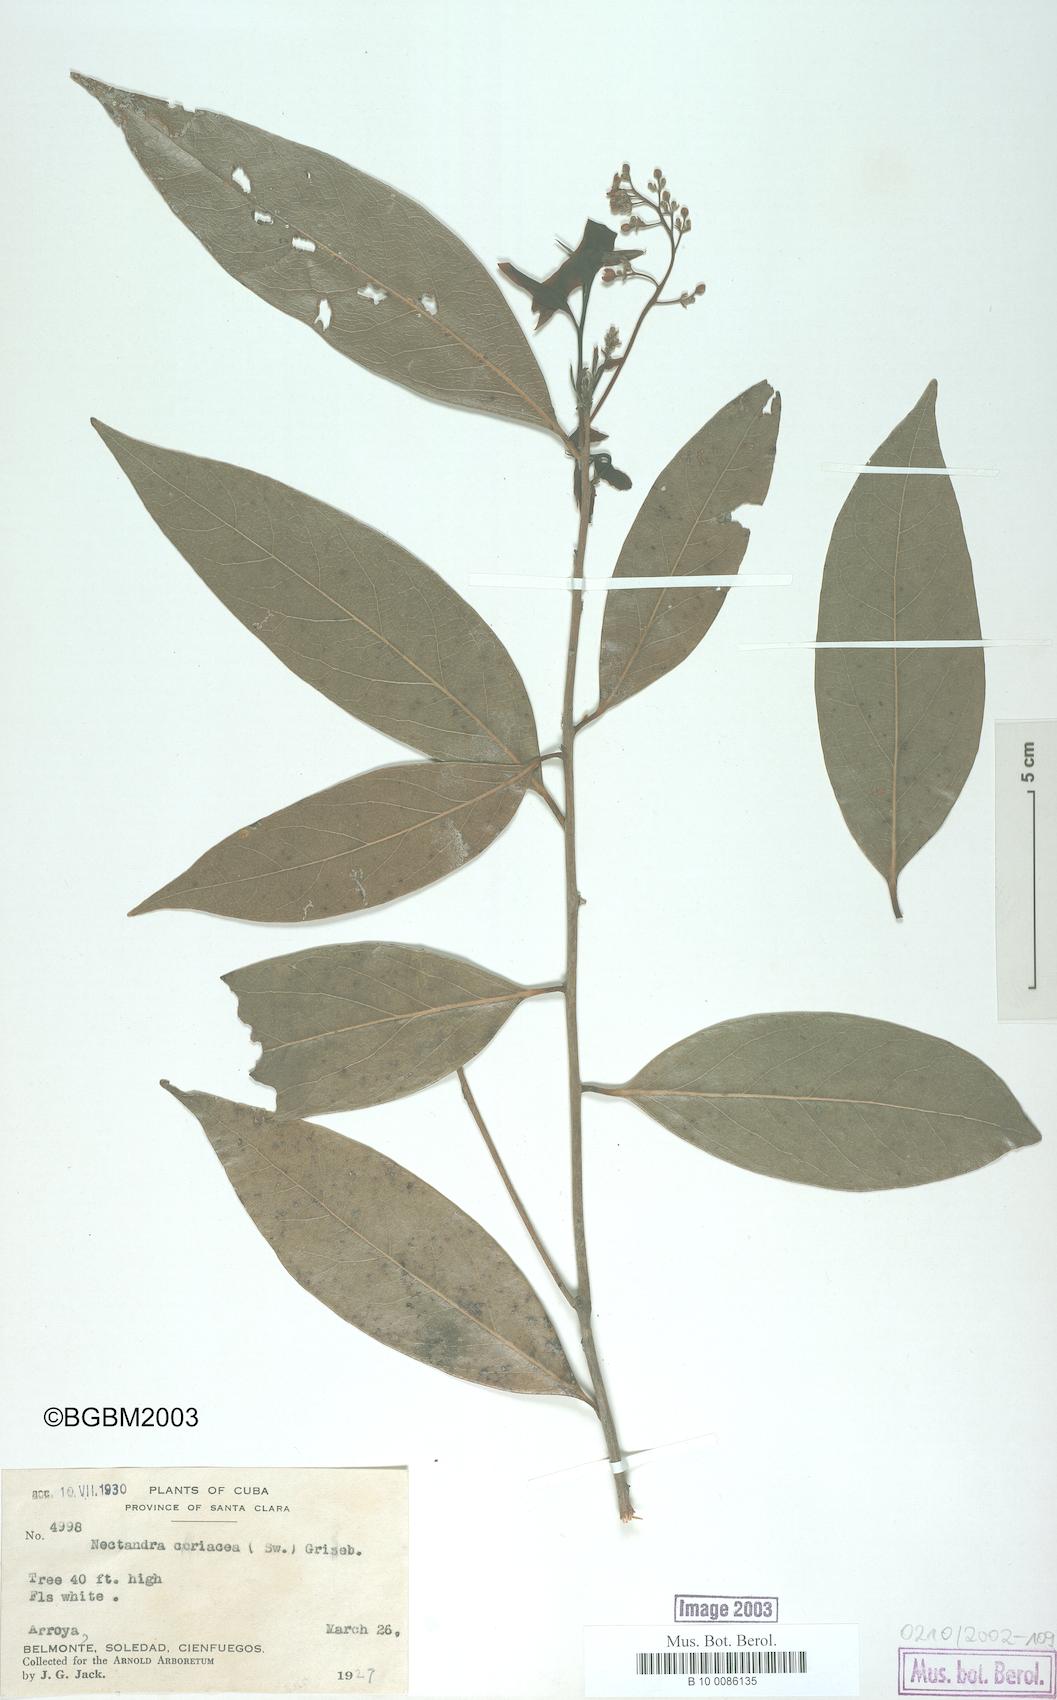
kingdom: Plantae
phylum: Tracheophyta
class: Magnoliopsida
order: Laurales
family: Lauraceae
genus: Damburneya
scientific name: Damburneya coriacea
